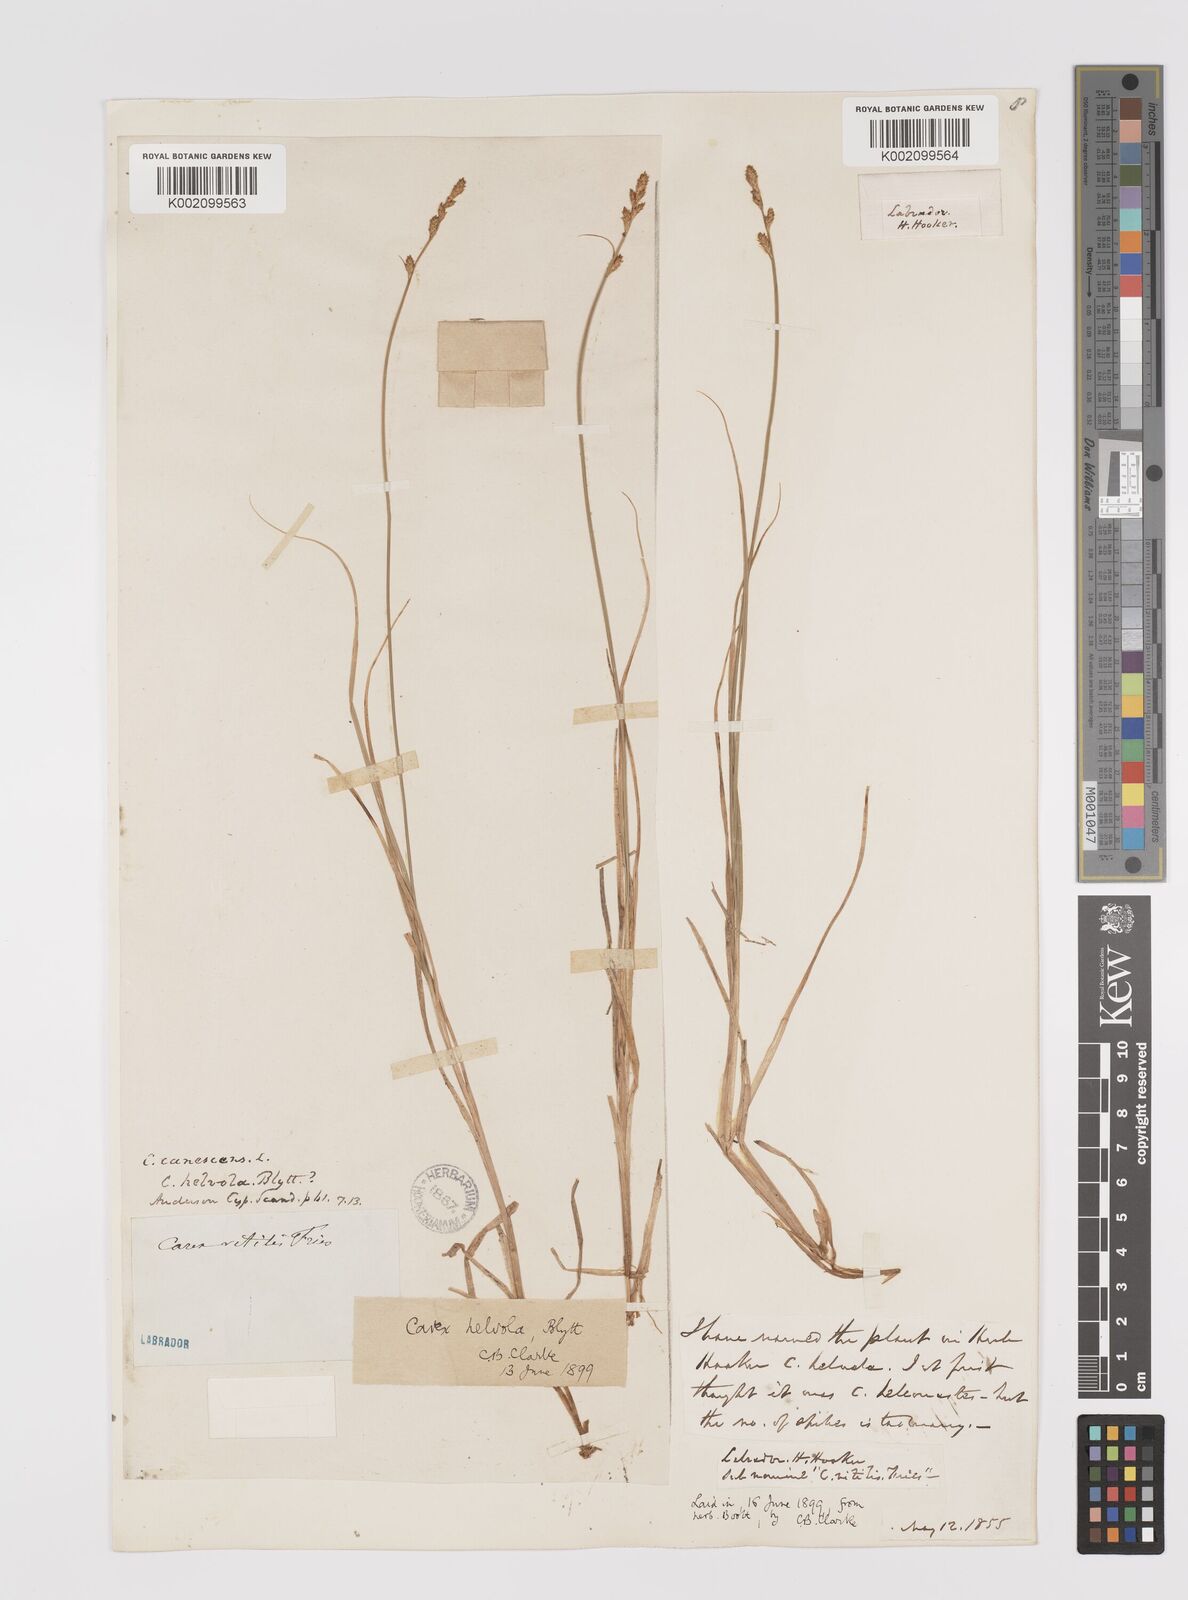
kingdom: Plantae
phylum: Tracheophyta
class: Liliopsida
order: Poales
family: Cyperaceae
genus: Carex
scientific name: Carex helvola
